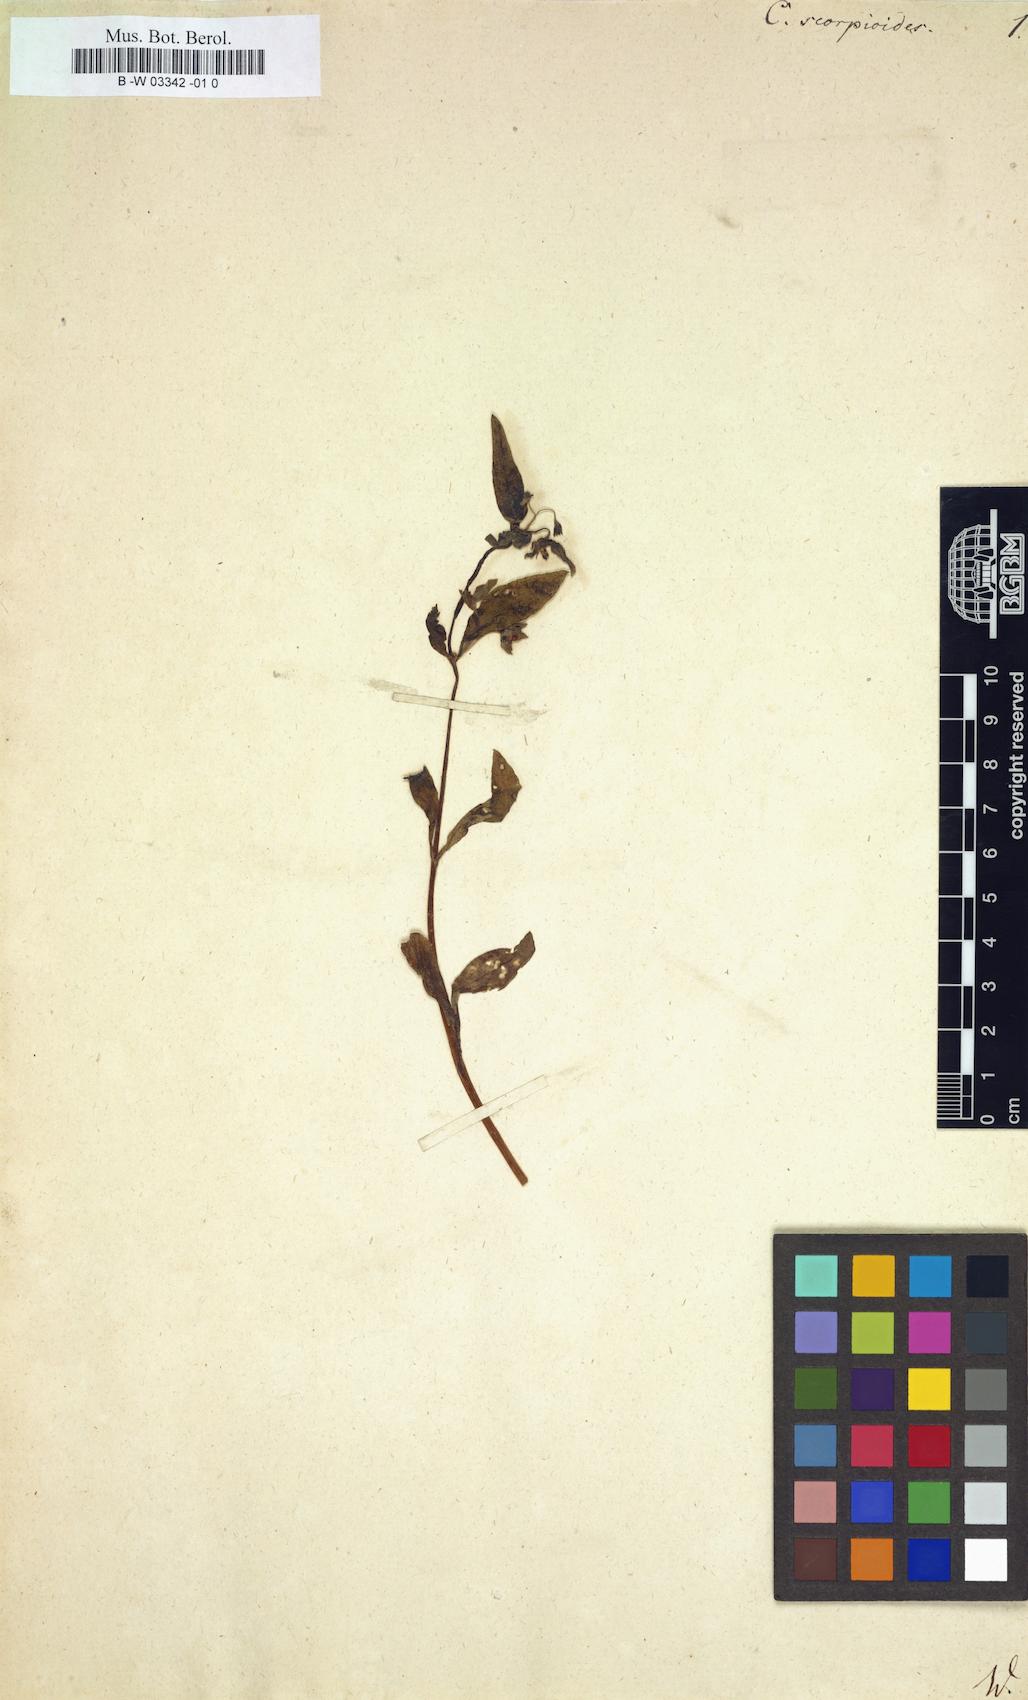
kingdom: Plantae
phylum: Tracheophyta
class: Magnoliopsida
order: Boraginales
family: Boraginaceae
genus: Memoremea
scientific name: Memoremea scorpioides
